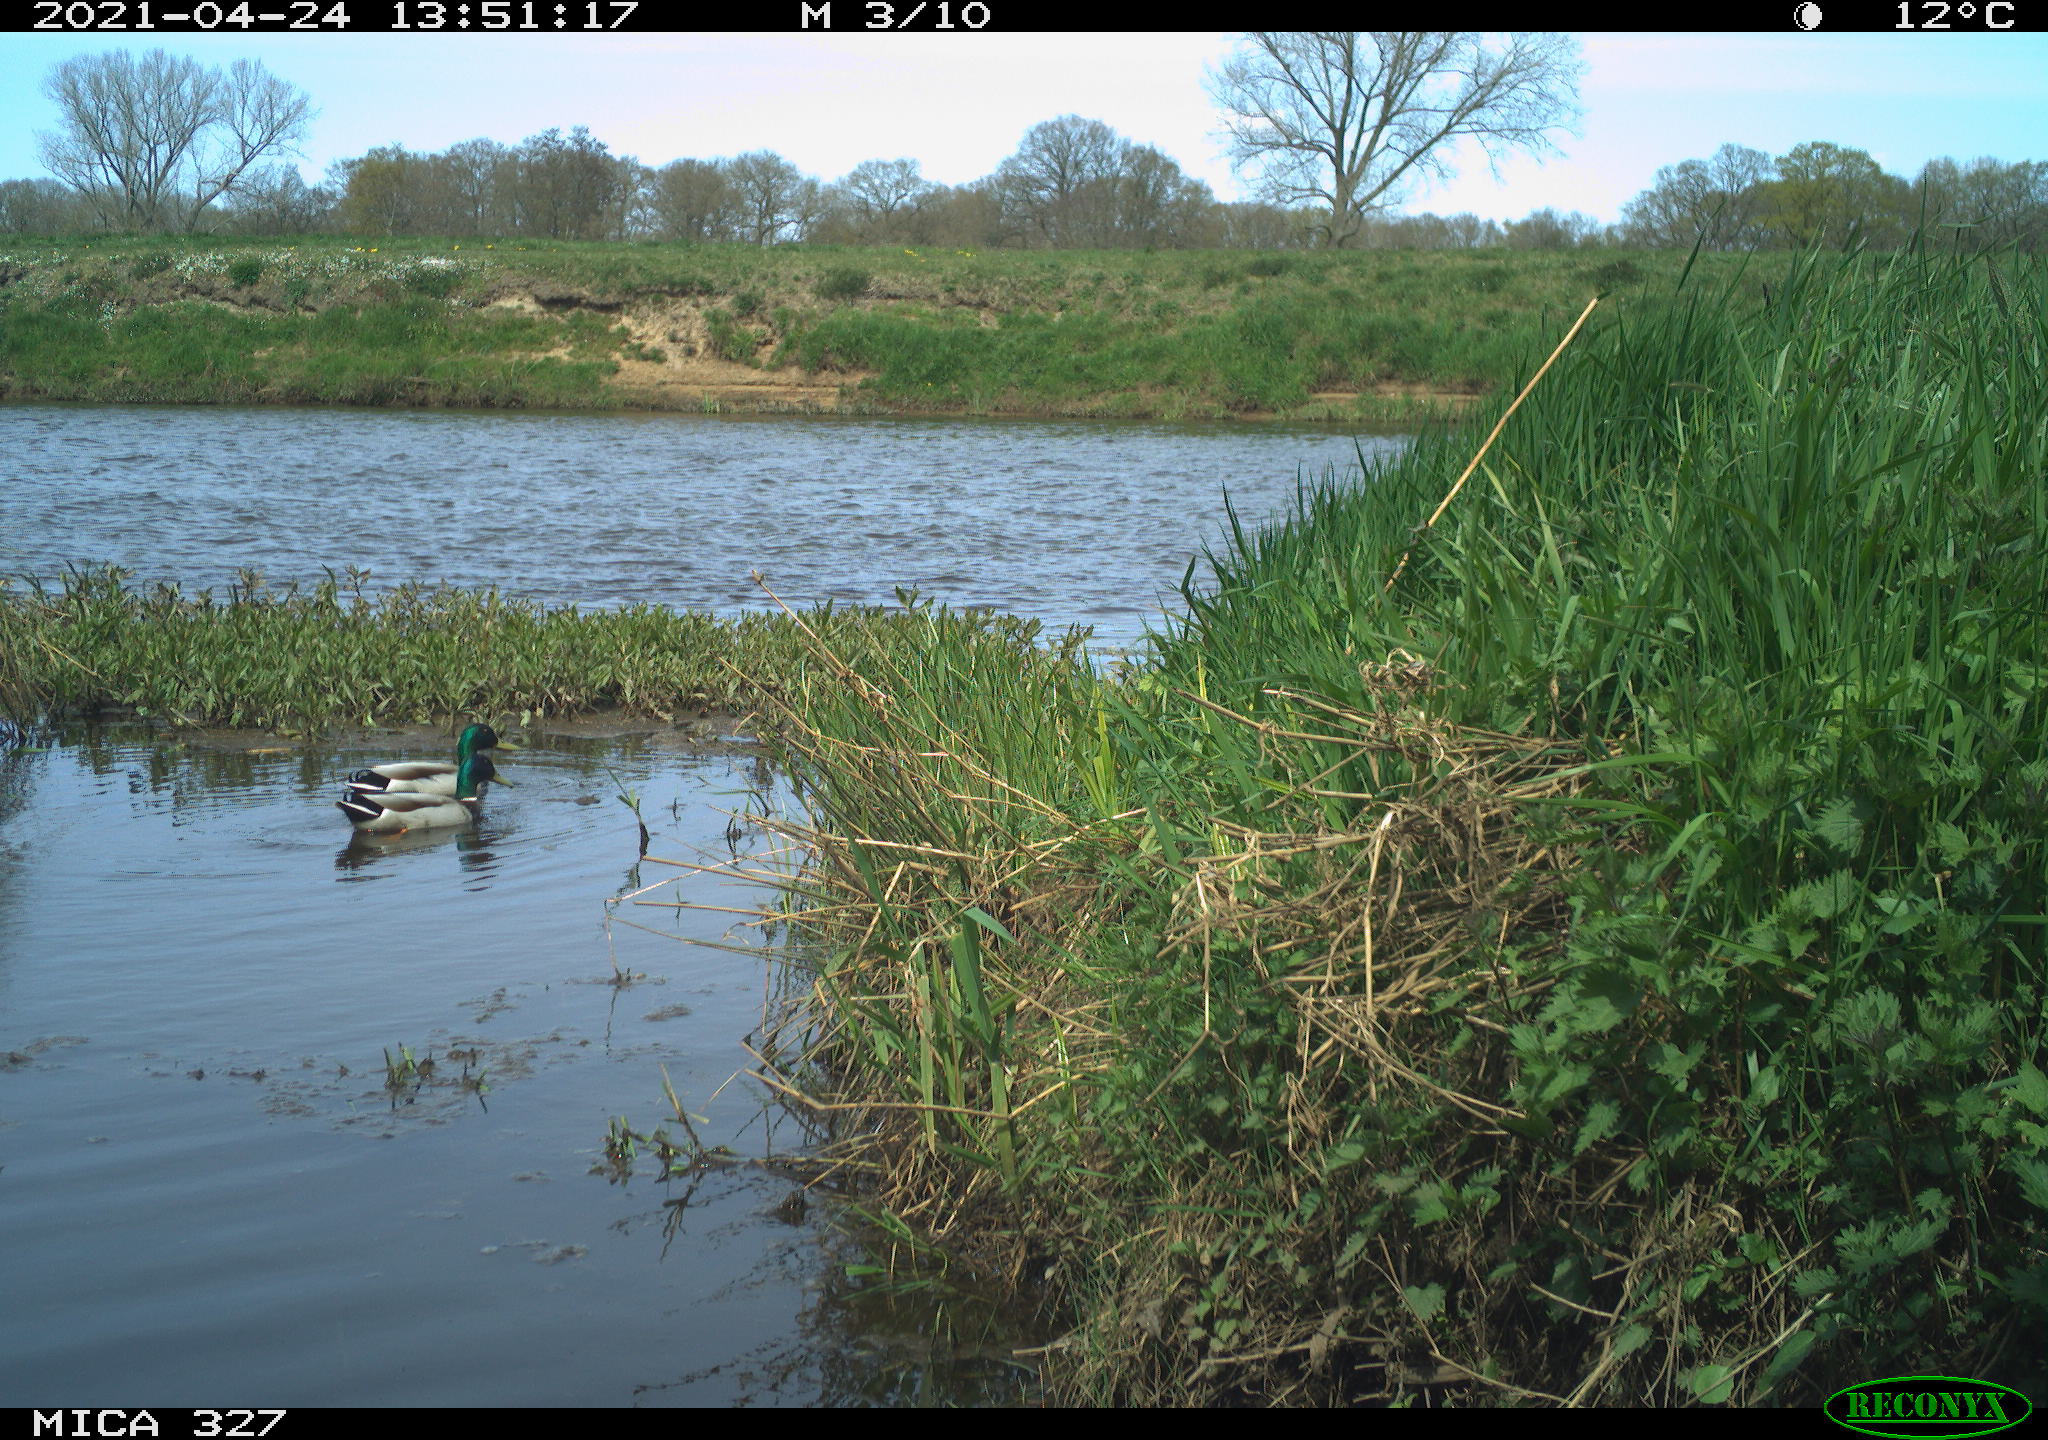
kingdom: Animalia
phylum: Chordata
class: Aves
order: Anseriformes
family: Anatidae
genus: Anas
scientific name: Anas platyrhynchos
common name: Mallard
